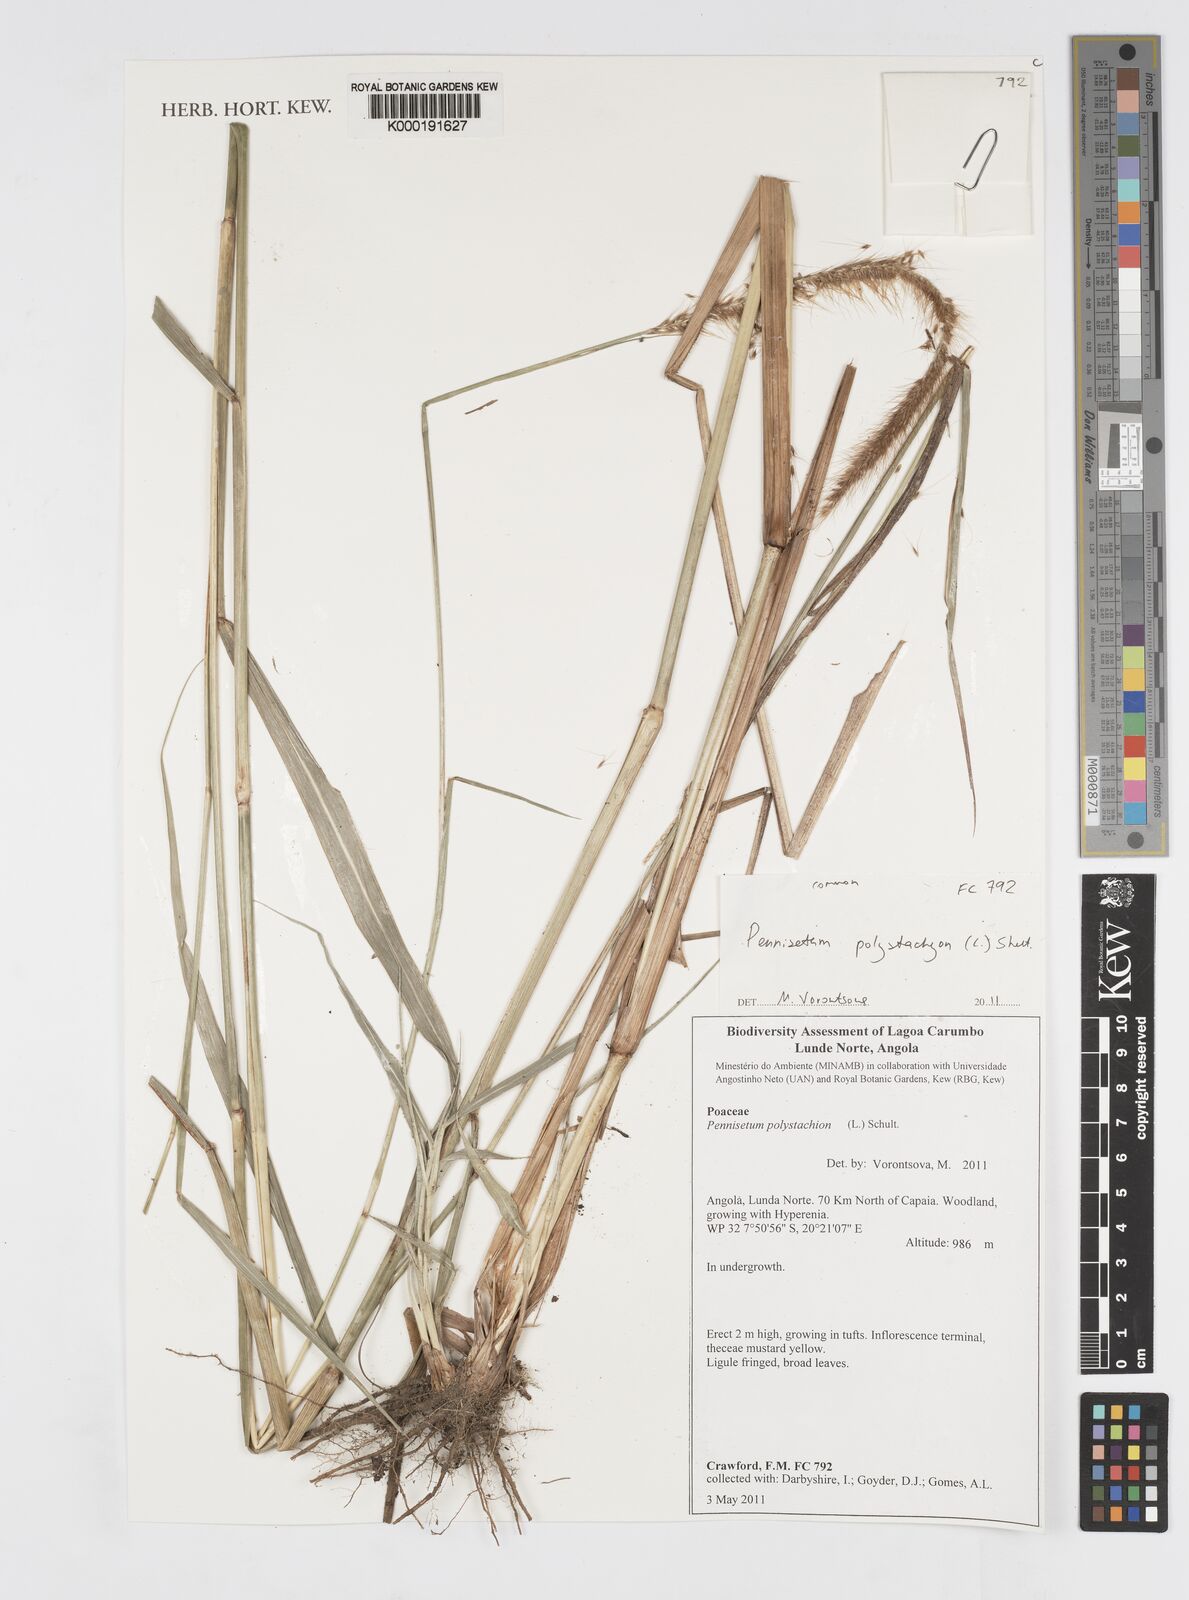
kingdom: Plantae
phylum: Tracheophyta
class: Liliopsida
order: Poales
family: Poaceae
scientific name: Poaceae
